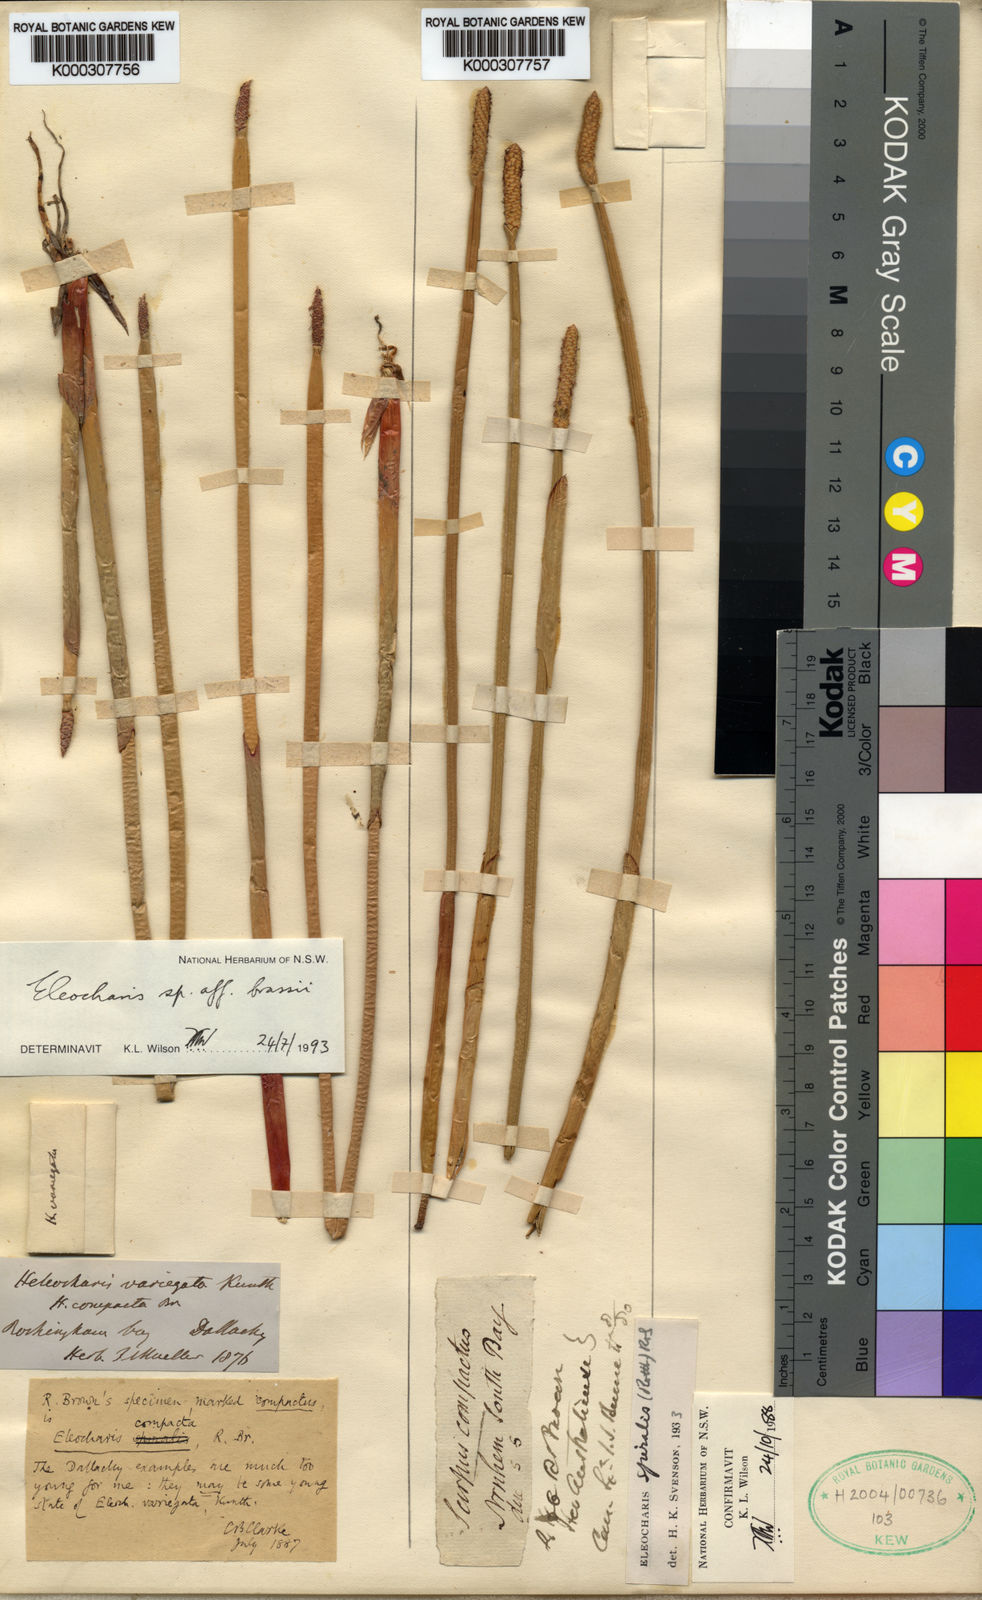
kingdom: Plantae
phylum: Tracheophyta
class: Liliopsida
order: Poales
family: Cyperaceae
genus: Eleocharis
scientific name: Eleocharis spiralis
